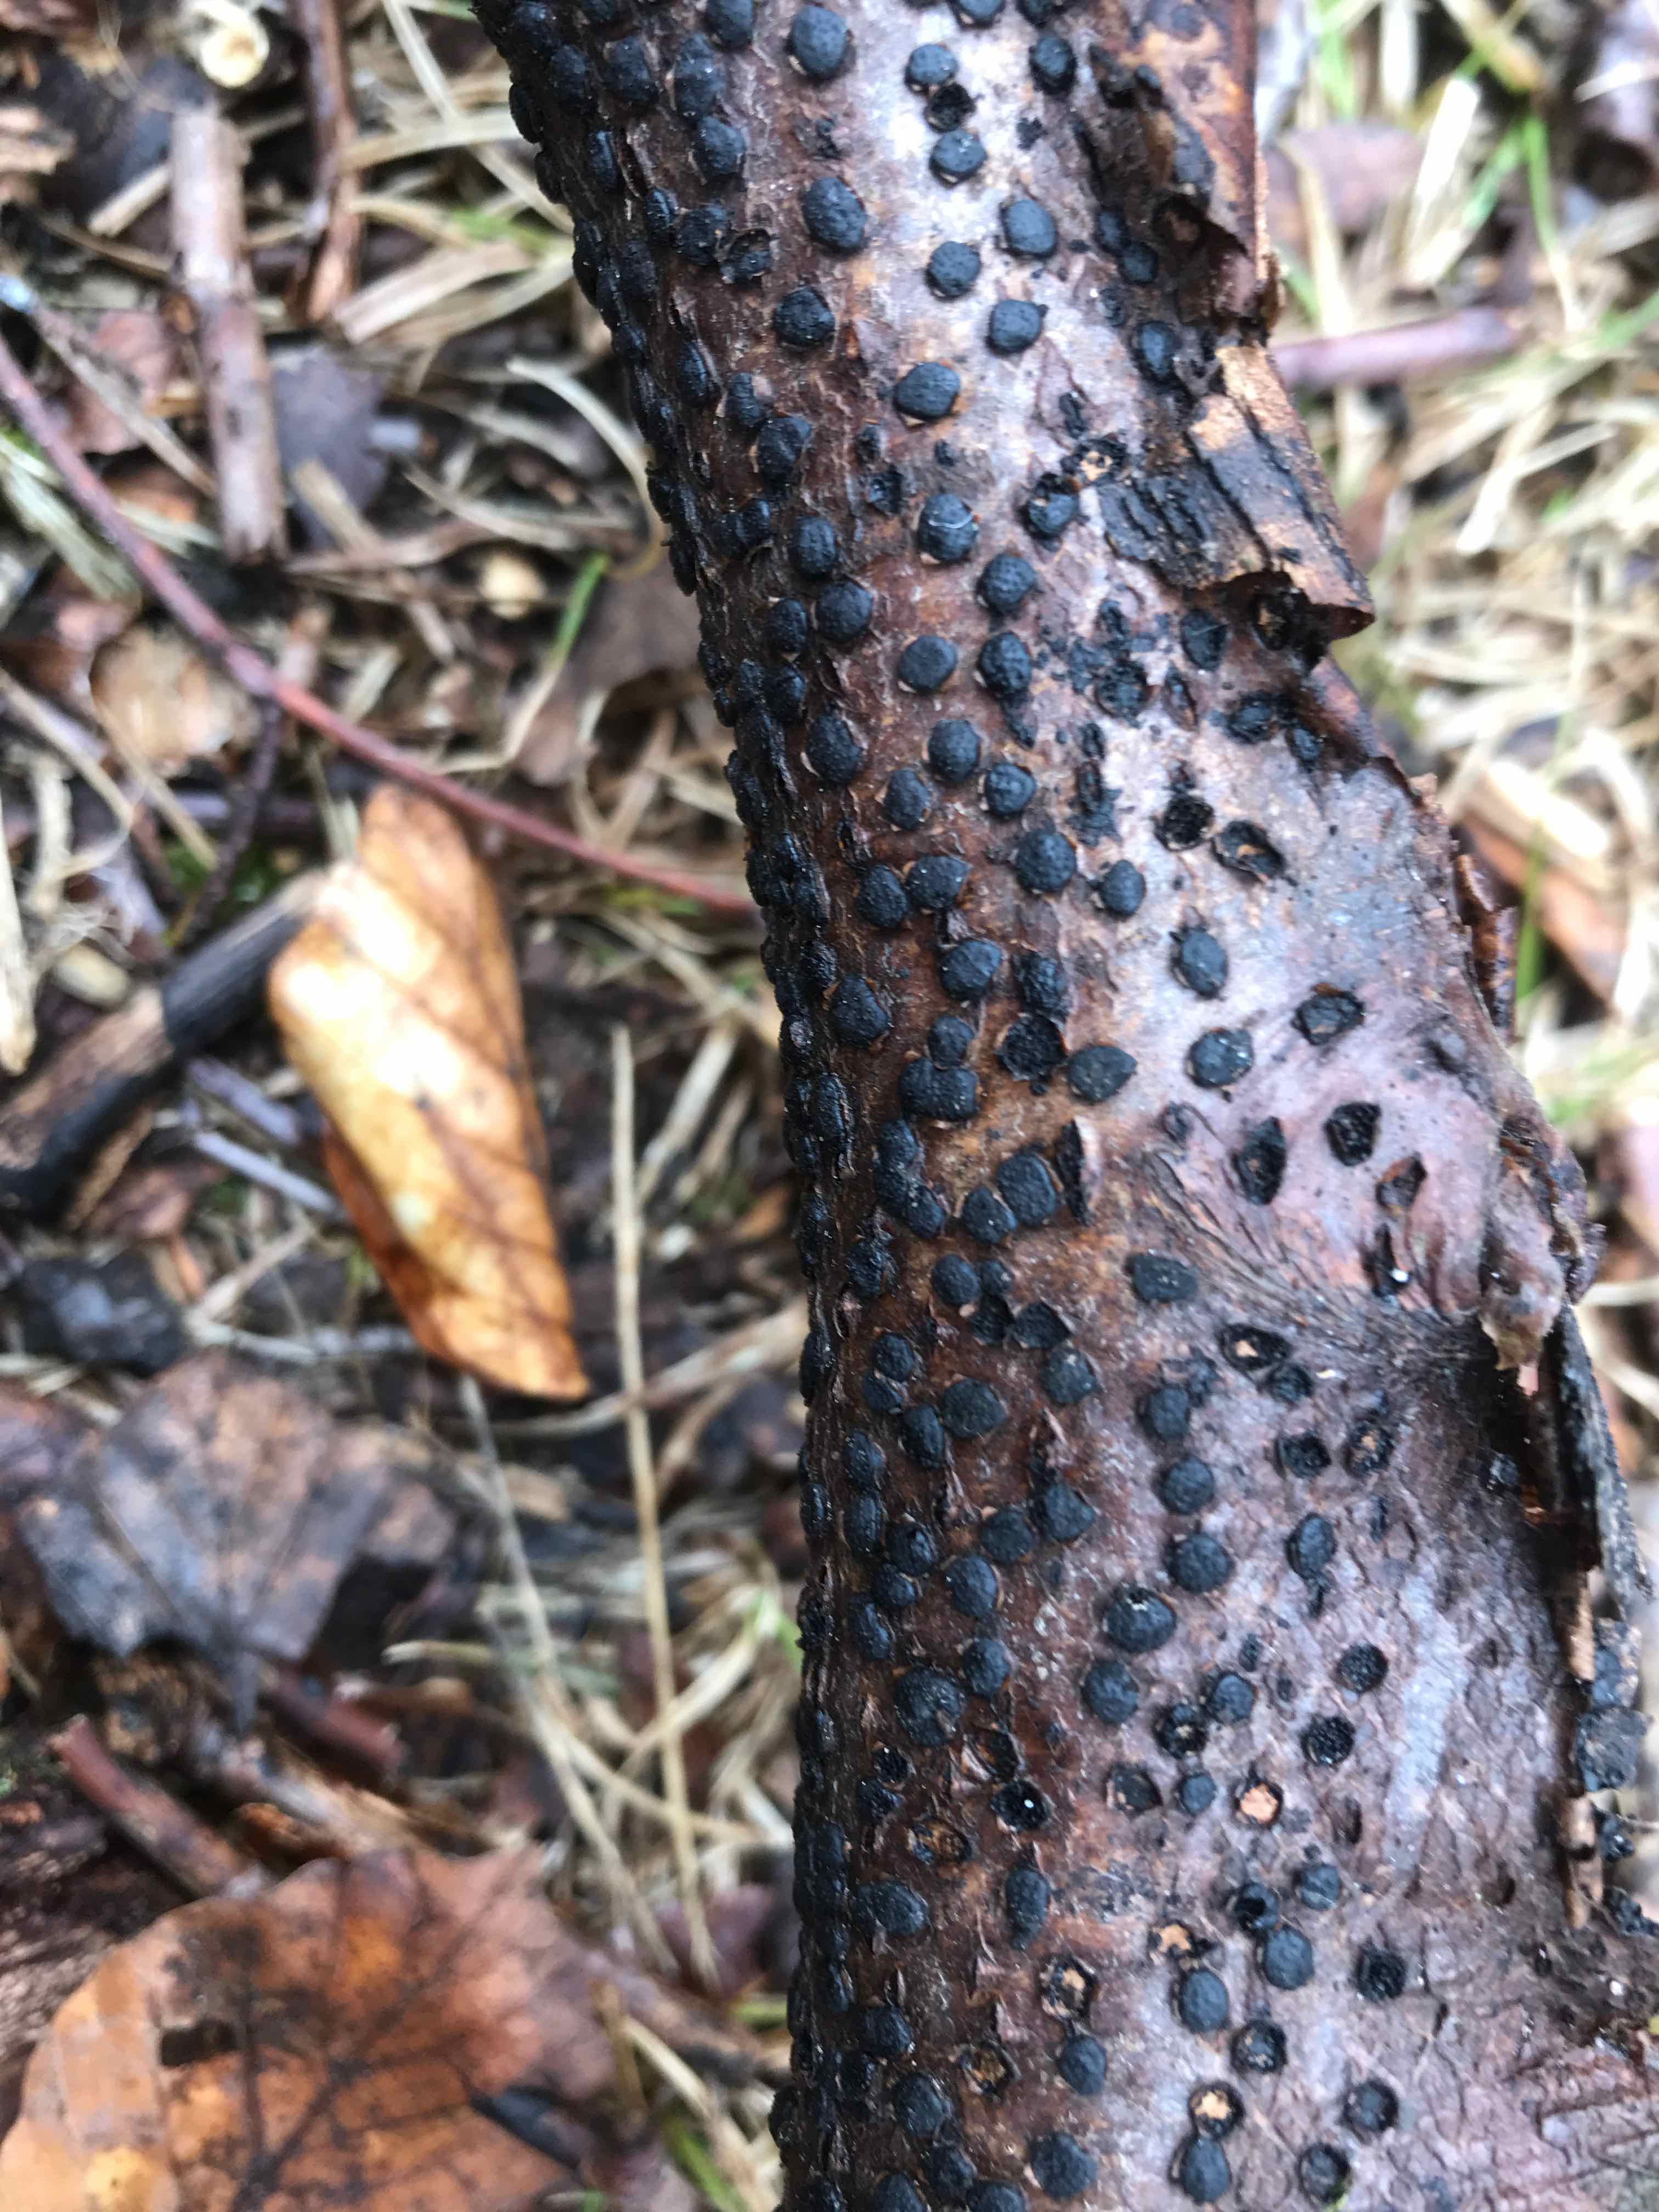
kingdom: Fungi
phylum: Ascomycota
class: Sordariomycetes
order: Xylariales
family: Diatrypaceae
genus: Diatrype
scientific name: Diatrype disciformis
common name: kant-kulskorpe
